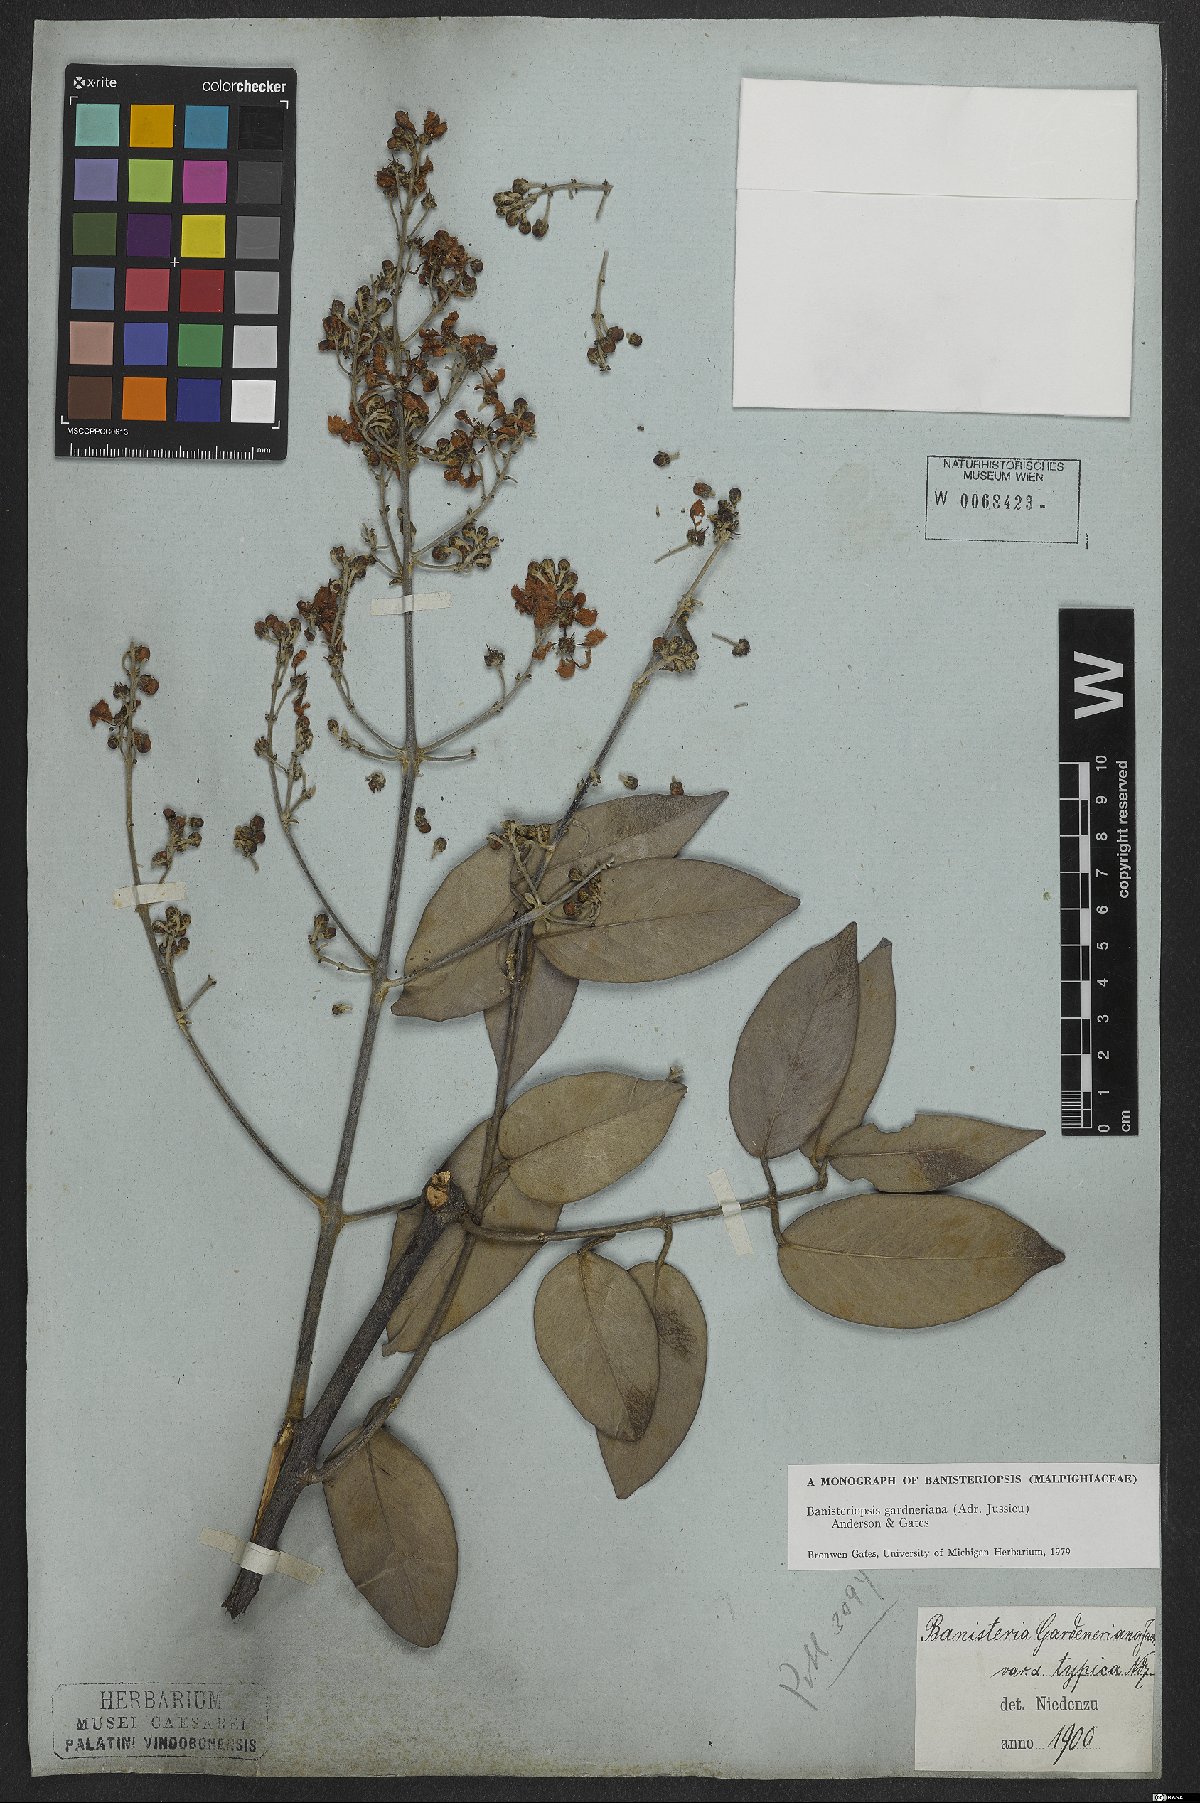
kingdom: Plantae
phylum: Tracheophyta
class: Magnoliopsida
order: Malpighiales
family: Malpighiaceae
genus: Banisteriopsis
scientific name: Banisteriopsis gardneriana
